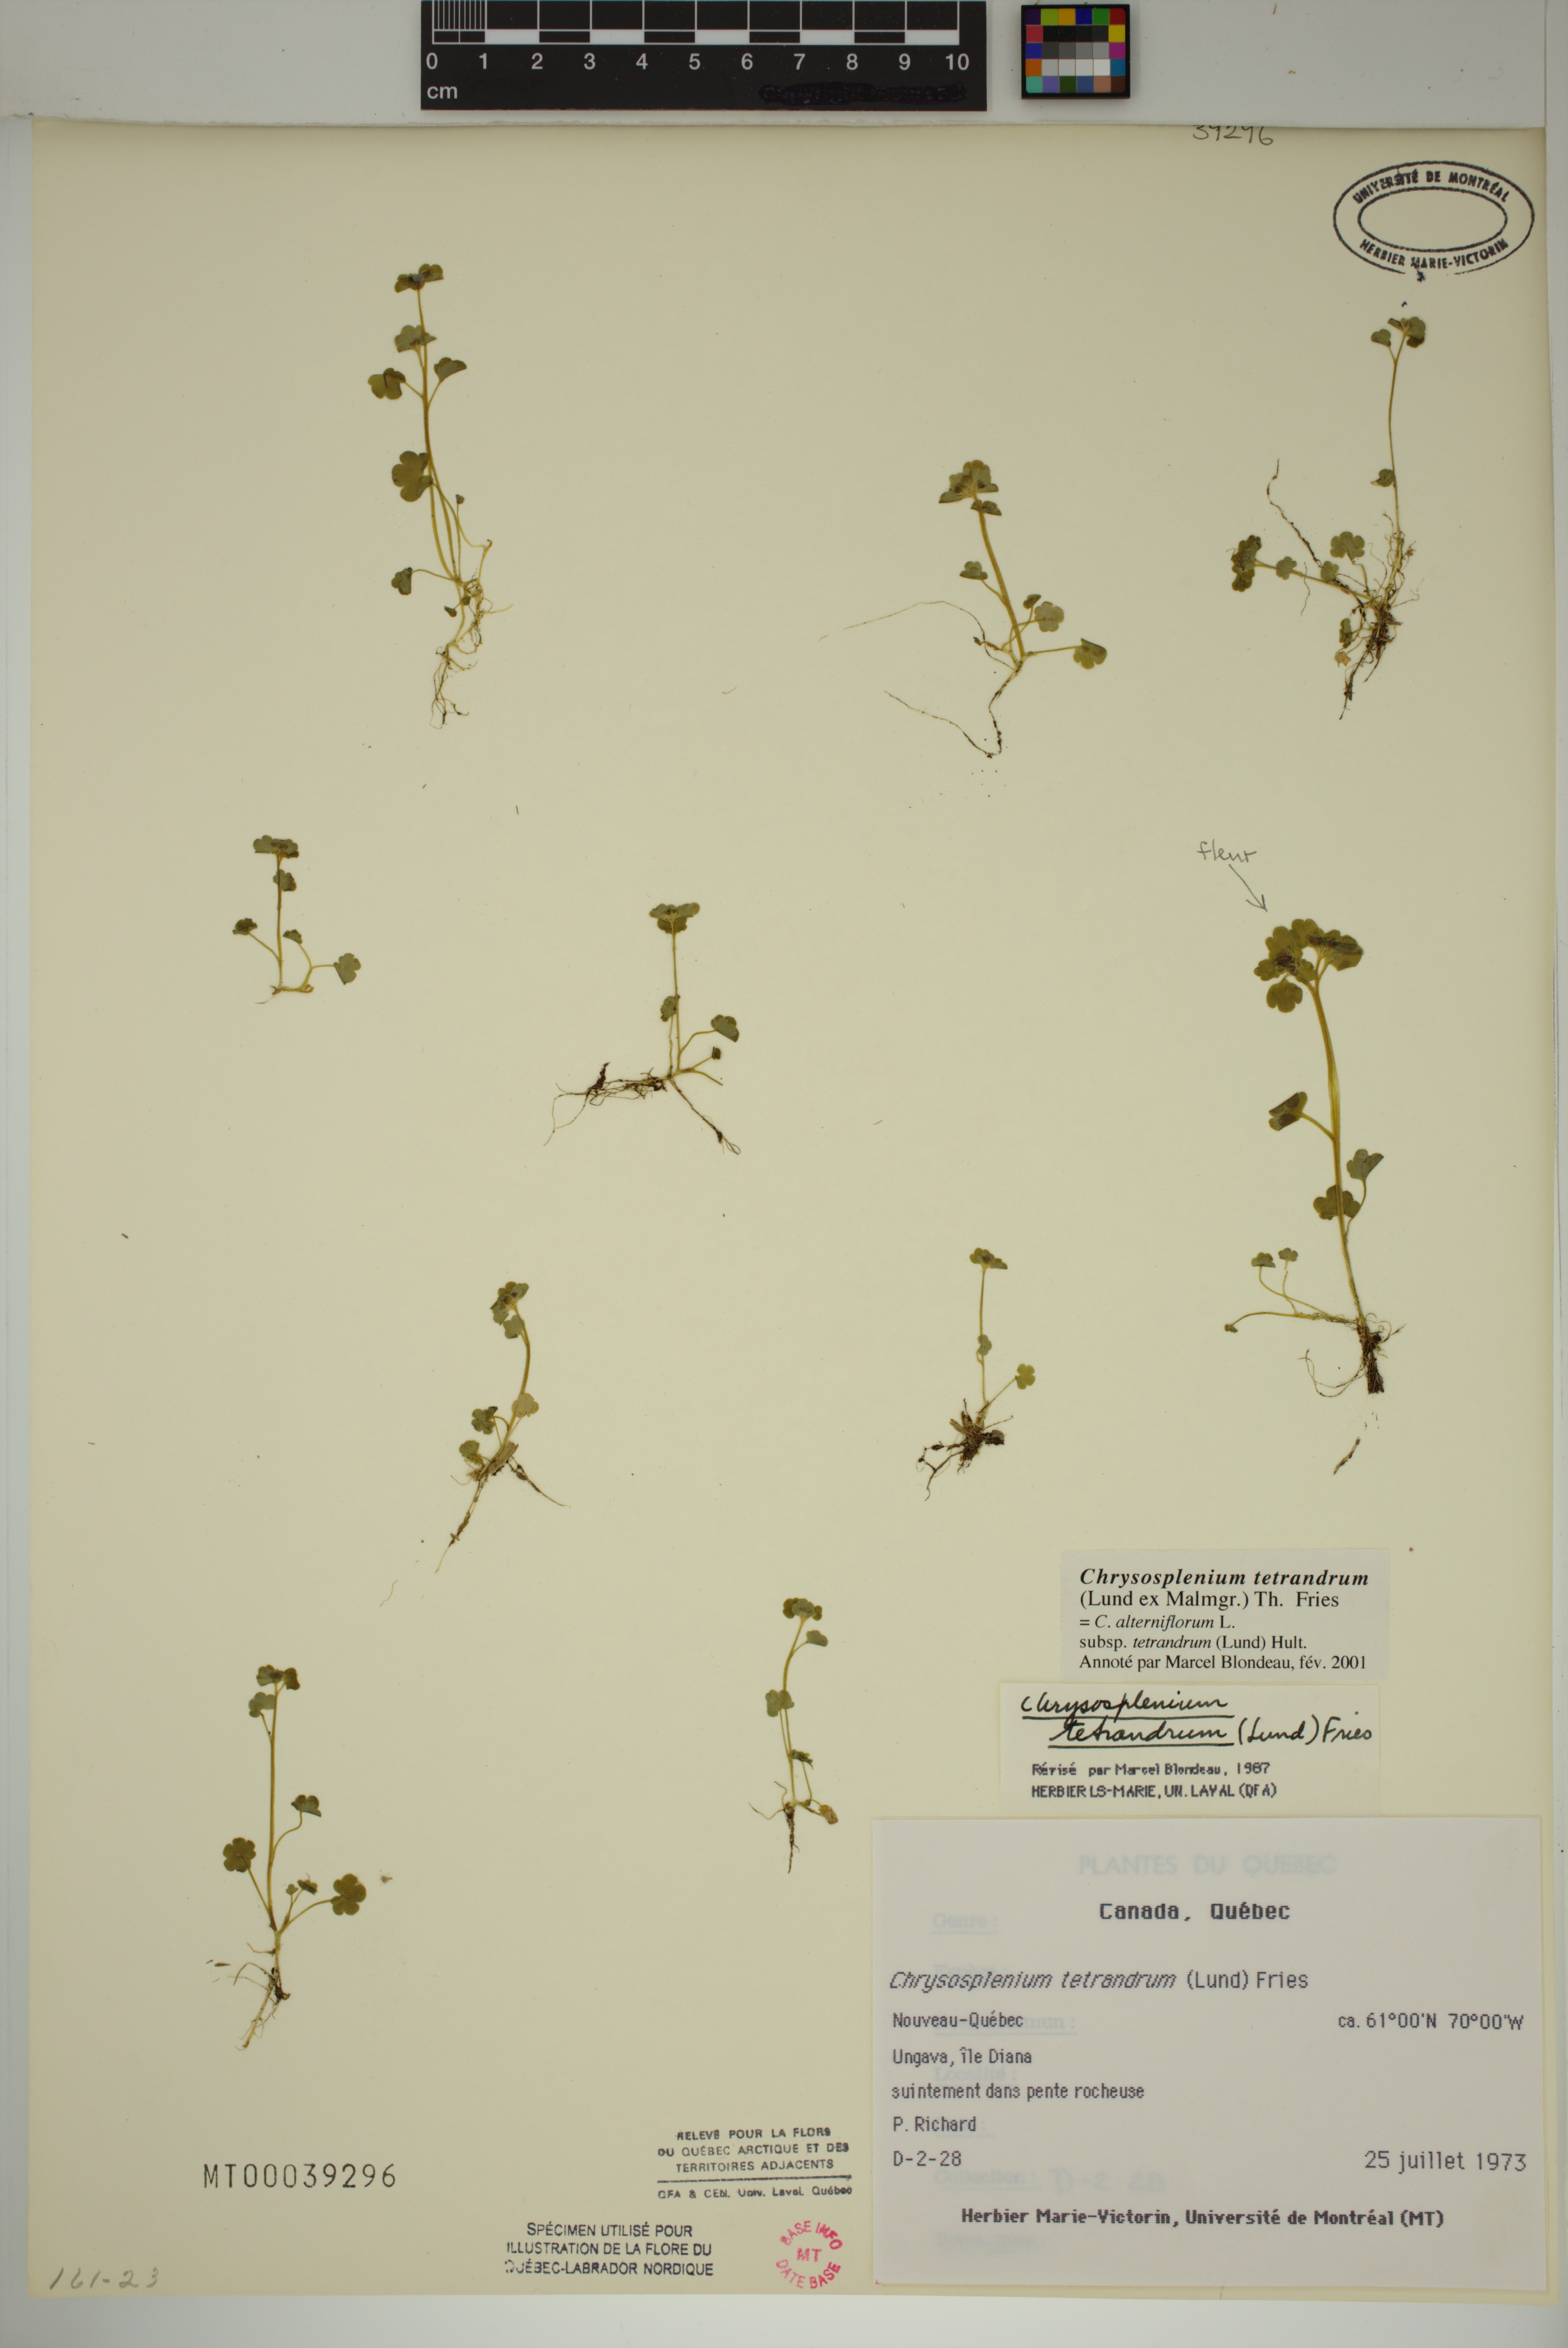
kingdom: Plantae
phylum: Tracheophyta
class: Magnoliopsida
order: Saxifragales
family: Saxifragaceae
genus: Chrysosplenium
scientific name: Chrysosplenium tetrandrum
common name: Green saxifrage
